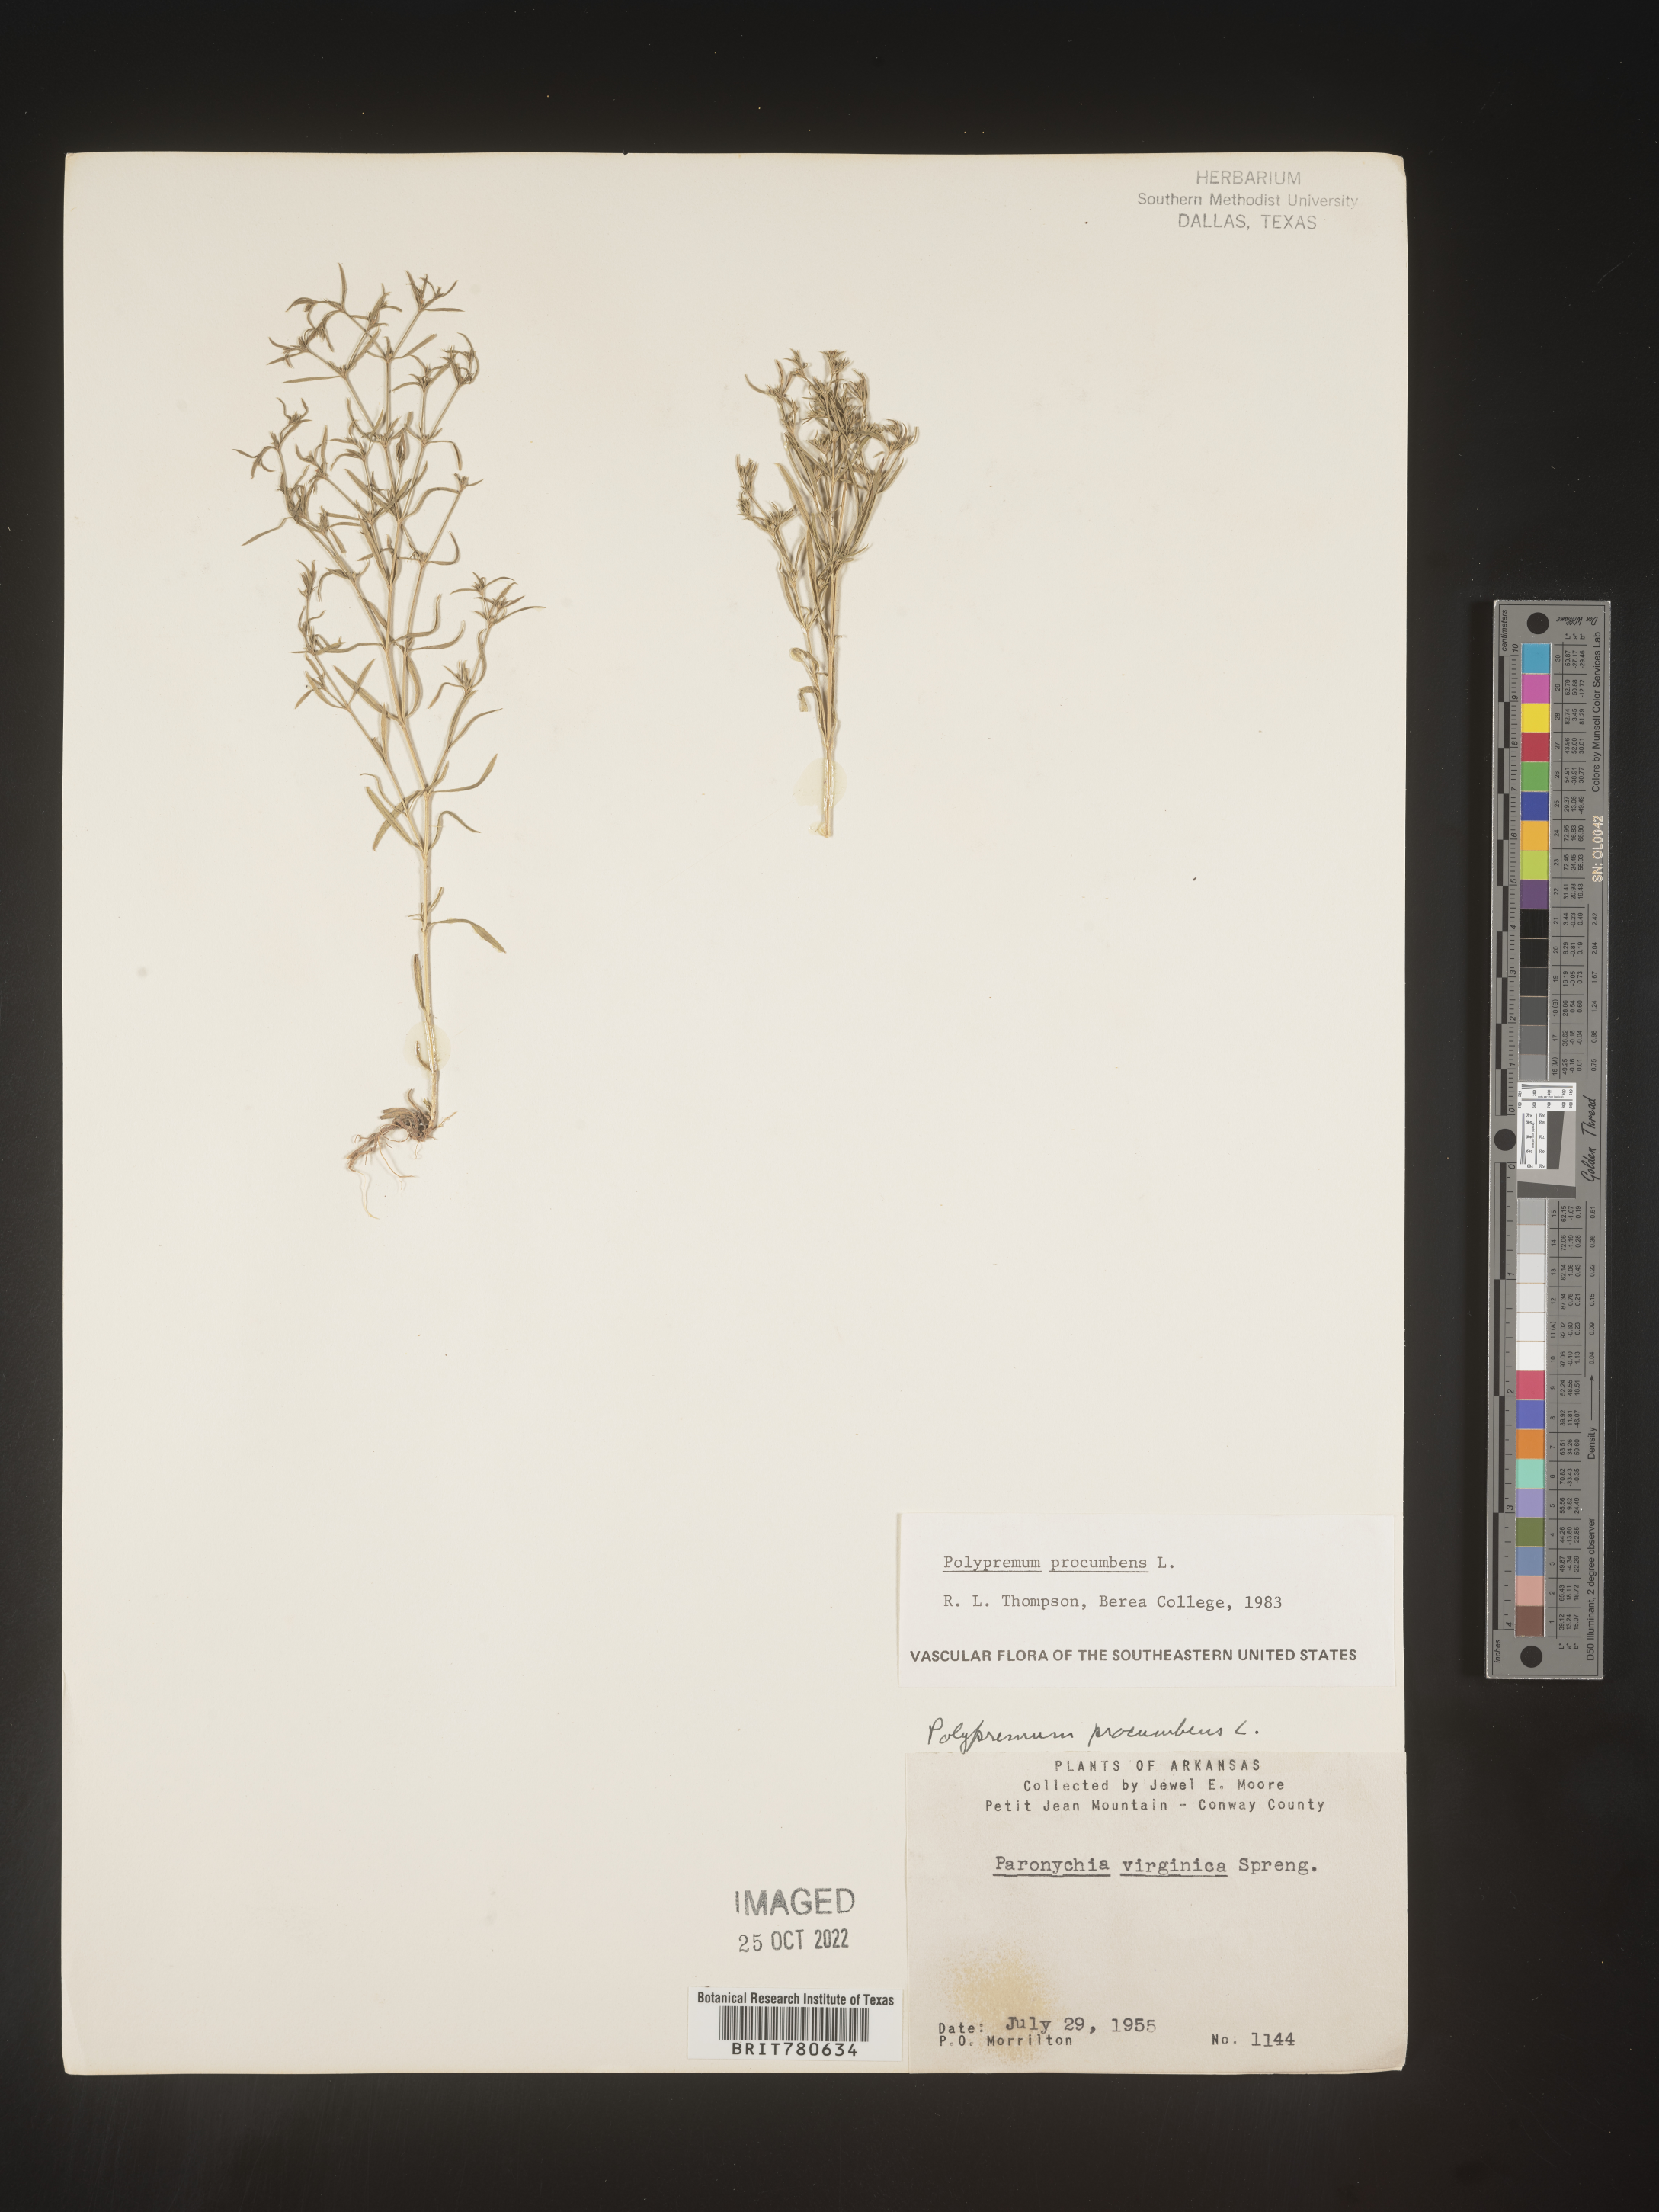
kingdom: Plantae
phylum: Tracheophyta
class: Magnoliopsida
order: Lamiales
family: Tetrachondraceae
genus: Polypremum
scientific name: Polypremum procumbens
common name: Juniper-leaf
